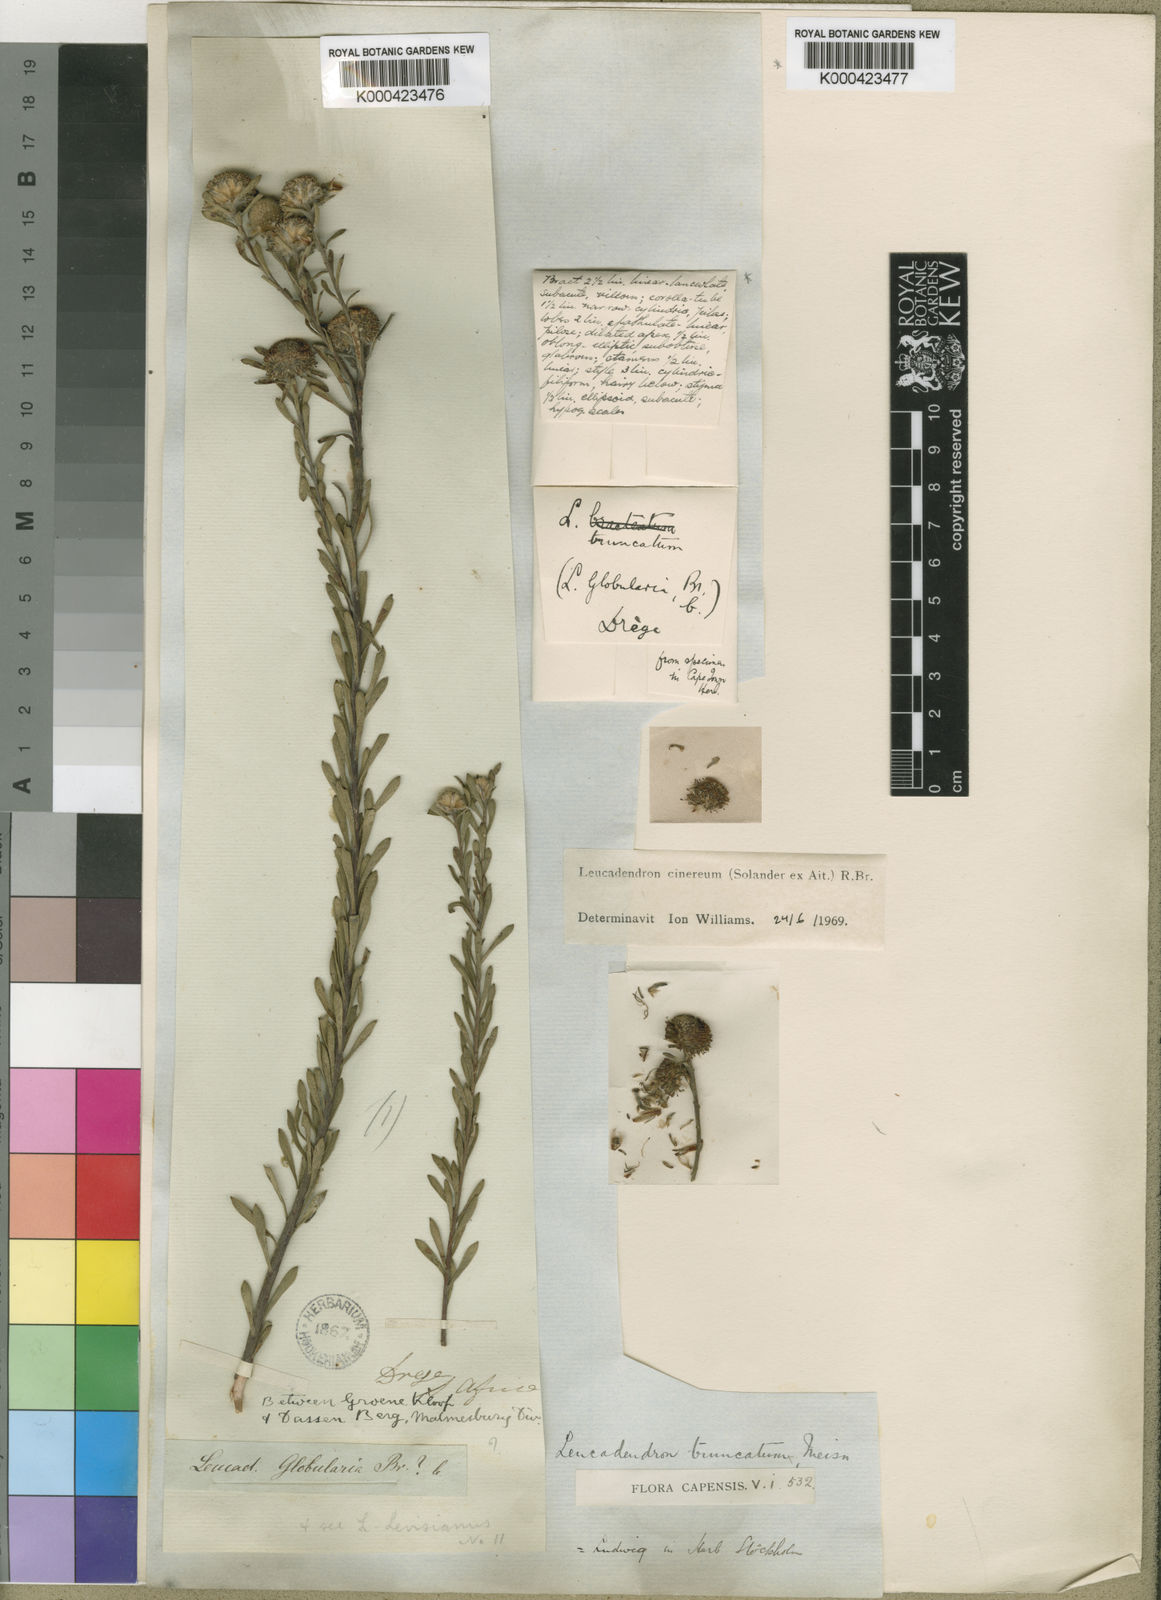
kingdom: Plantae
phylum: Tracheophyta
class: Magnoliopsida
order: Proteales
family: Proteaceae
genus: Leucadendron
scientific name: Leucadendron cinereum
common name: Scraggly conebush
